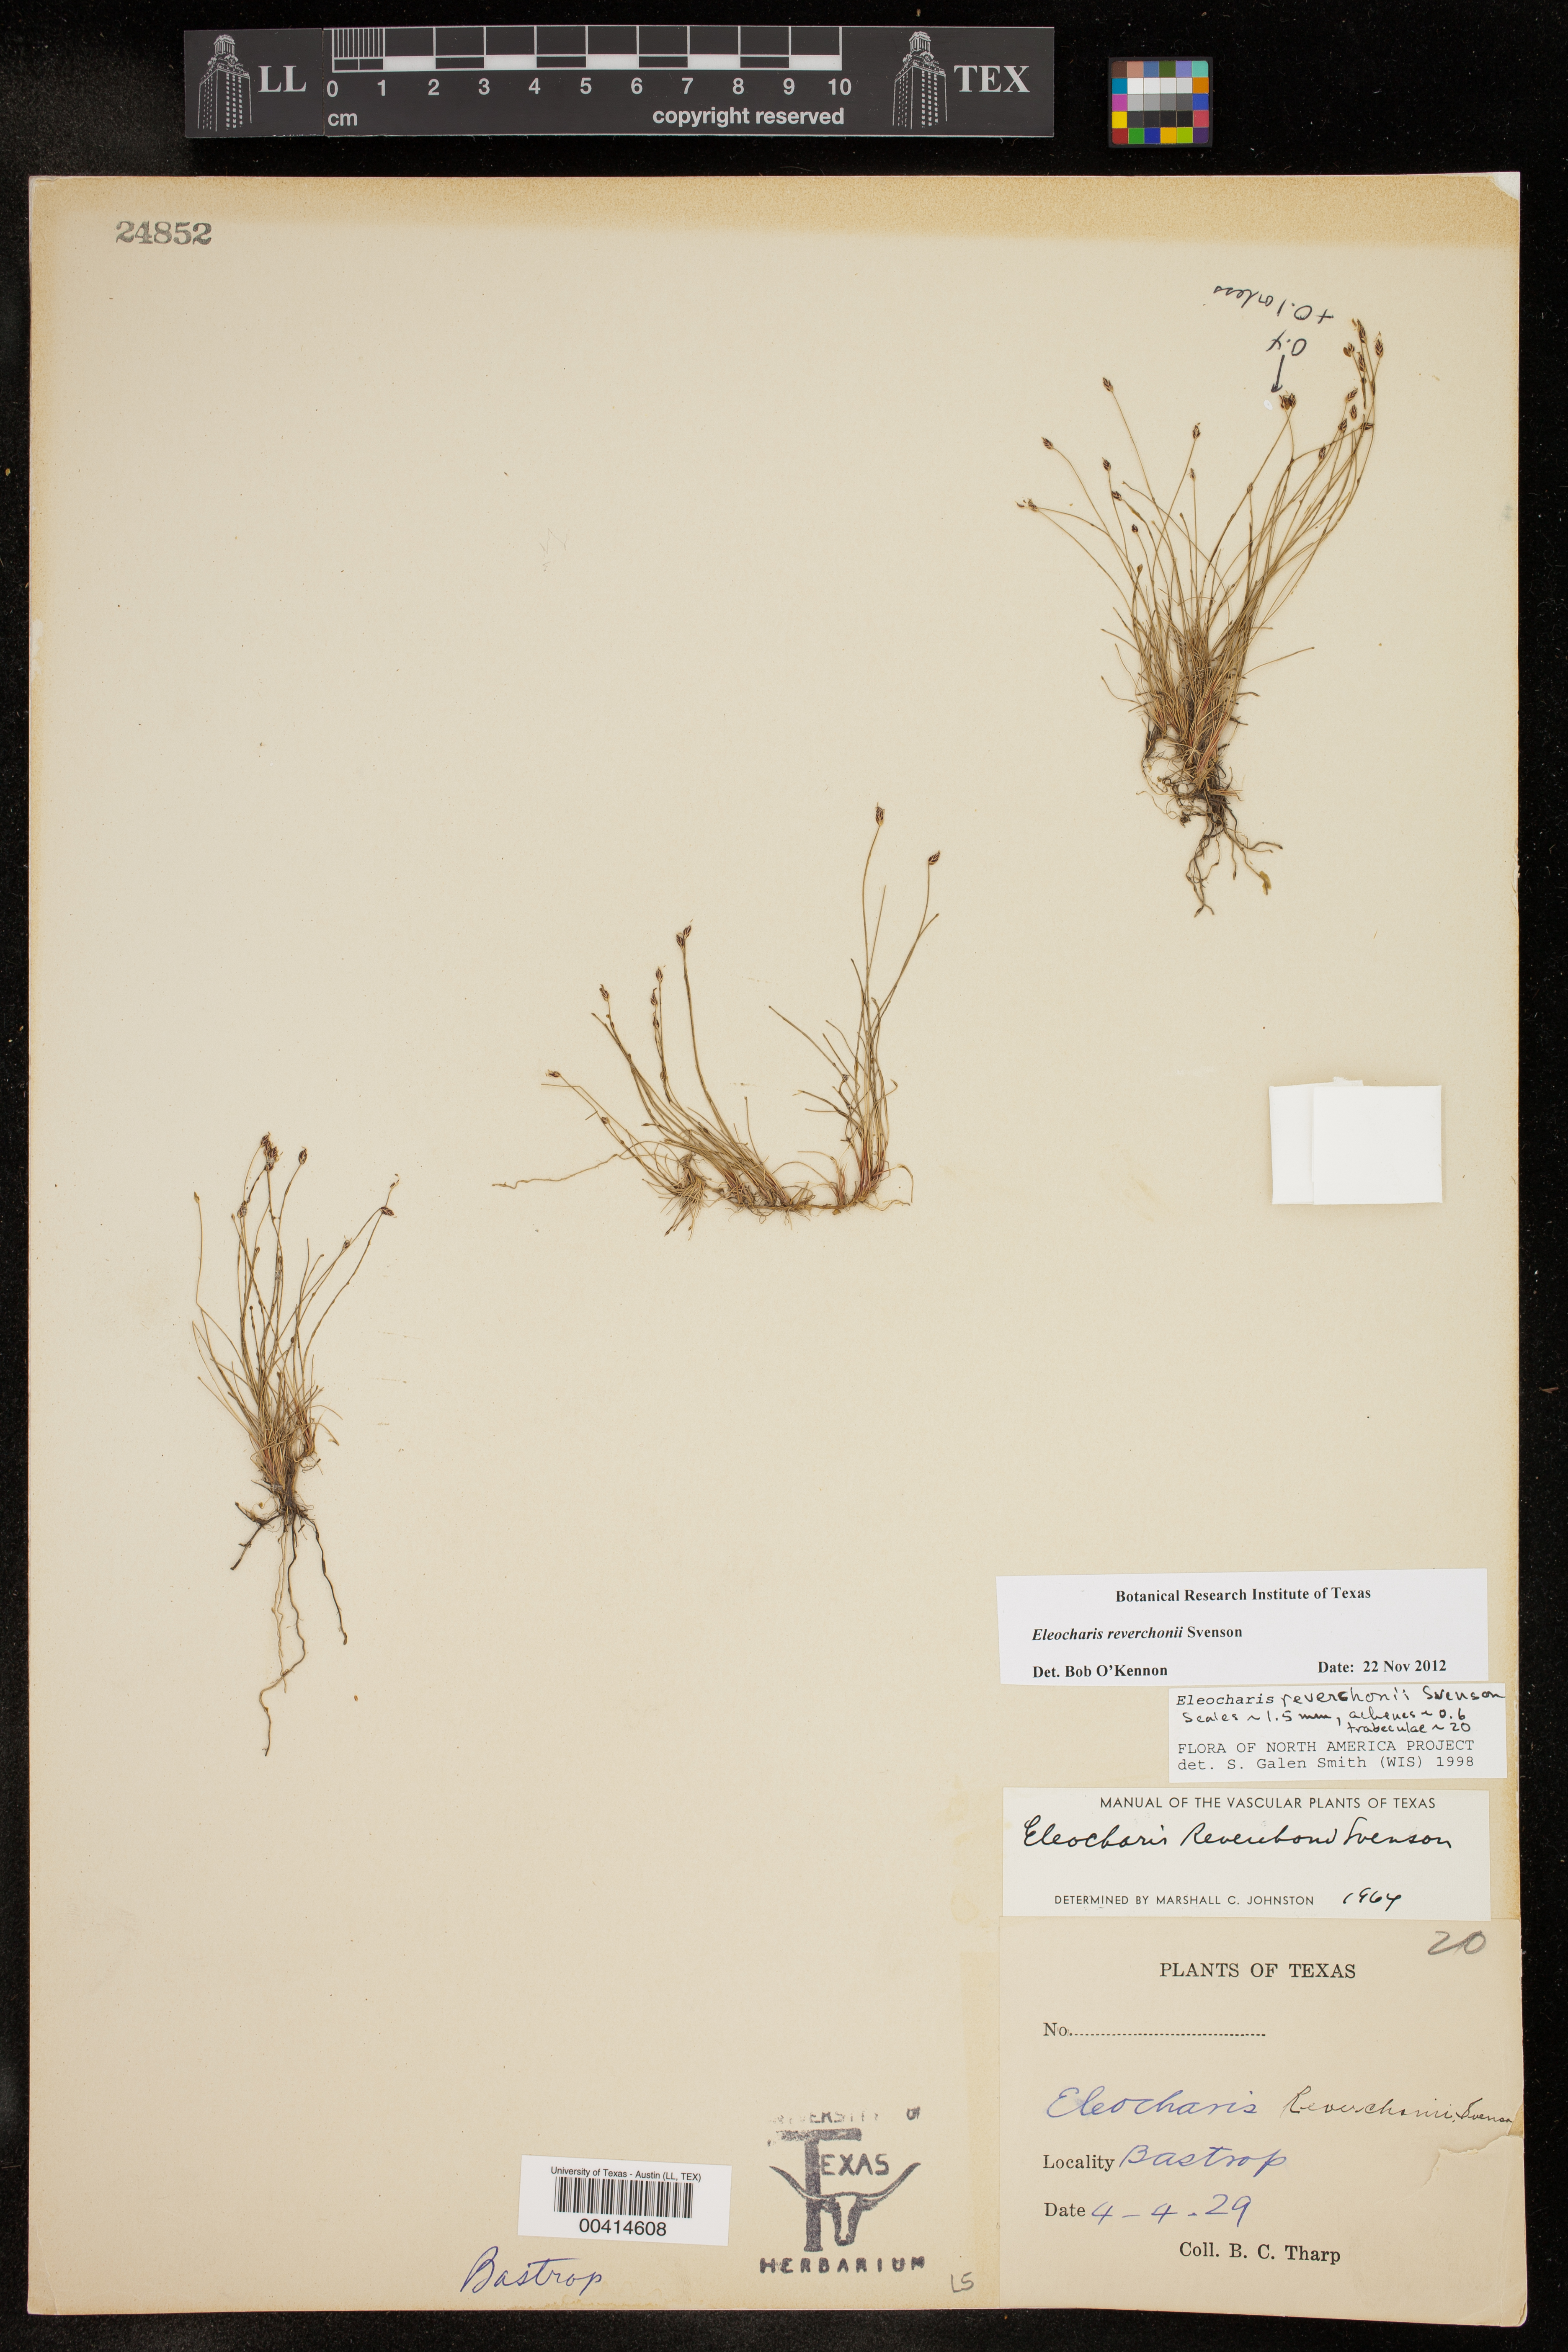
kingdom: Plantae
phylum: Tracheophyta
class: Liliopsida
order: Poales
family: Cyperaceae
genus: Eleocharis
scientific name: Eleocharis reverchonii
